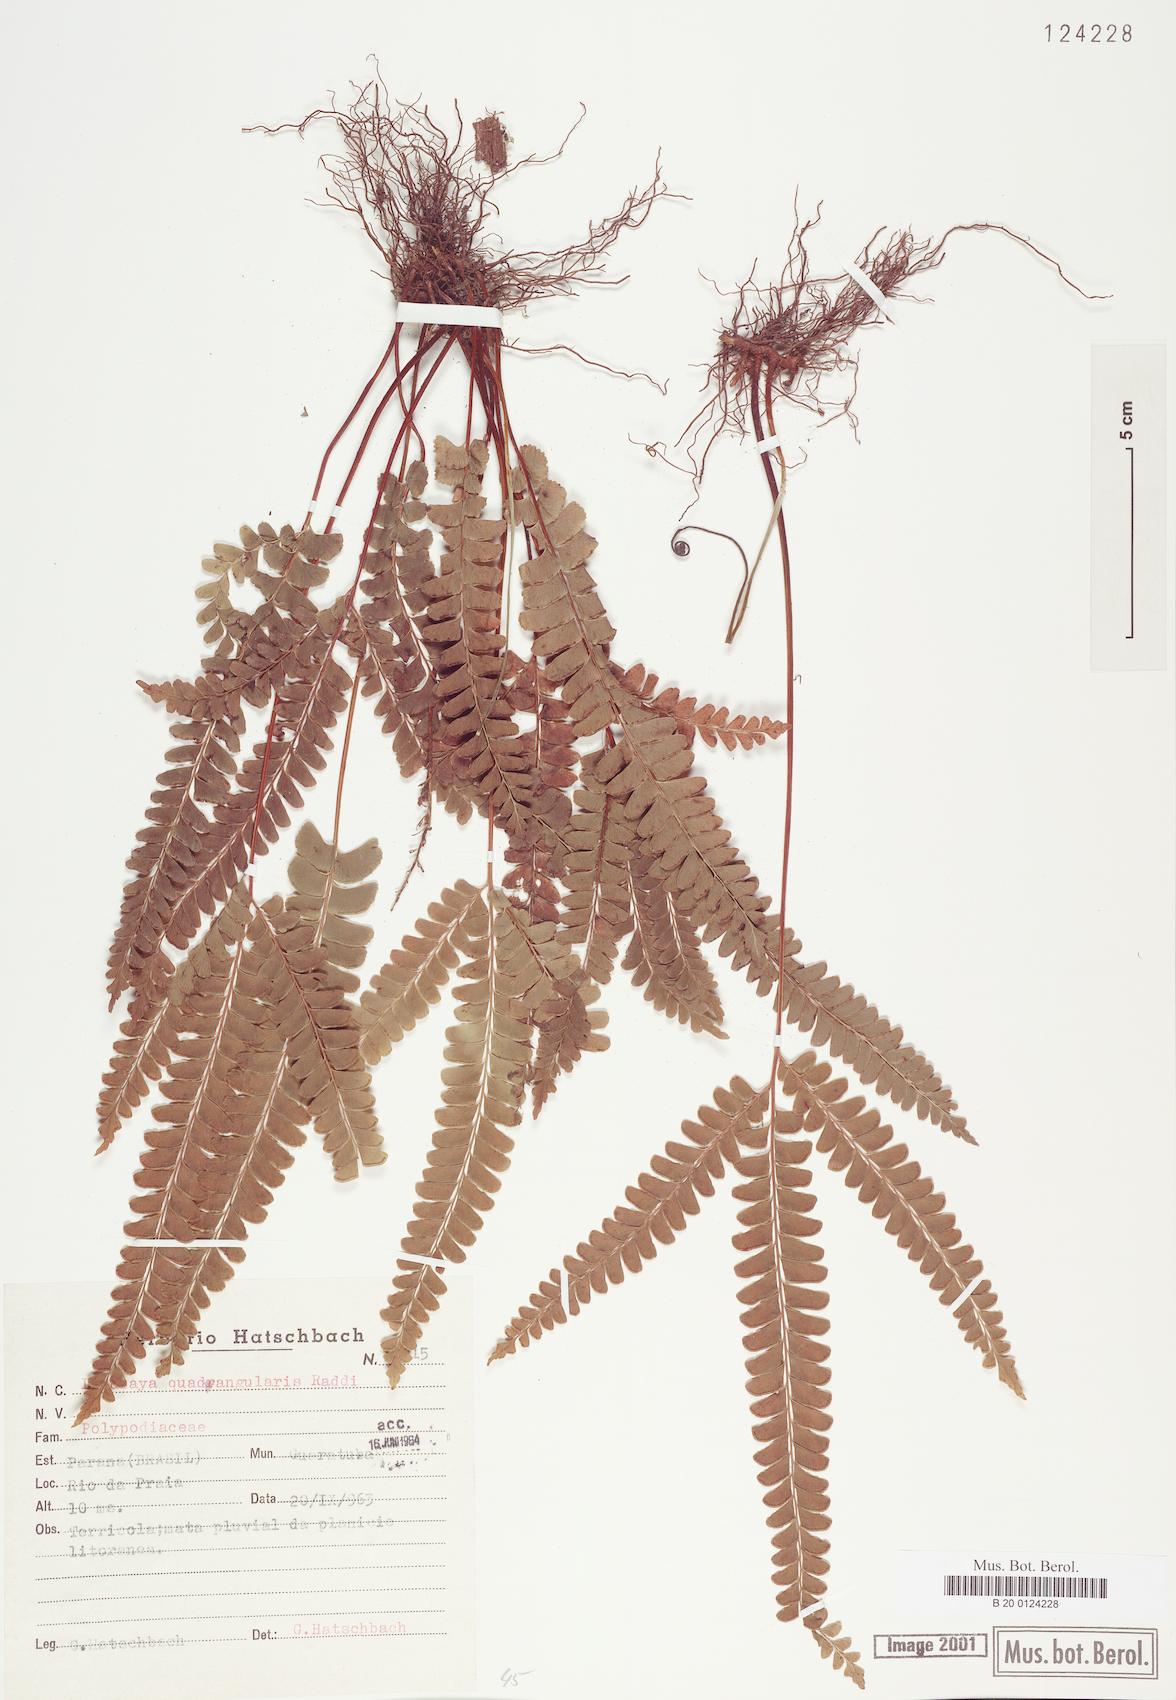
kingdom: Plantae
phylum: Tracheophyta
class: Polypodiopsida
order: Polypodiales
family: Lindsaeaceae
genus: Lindsaea
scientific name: Lindsaea quadrangularis
